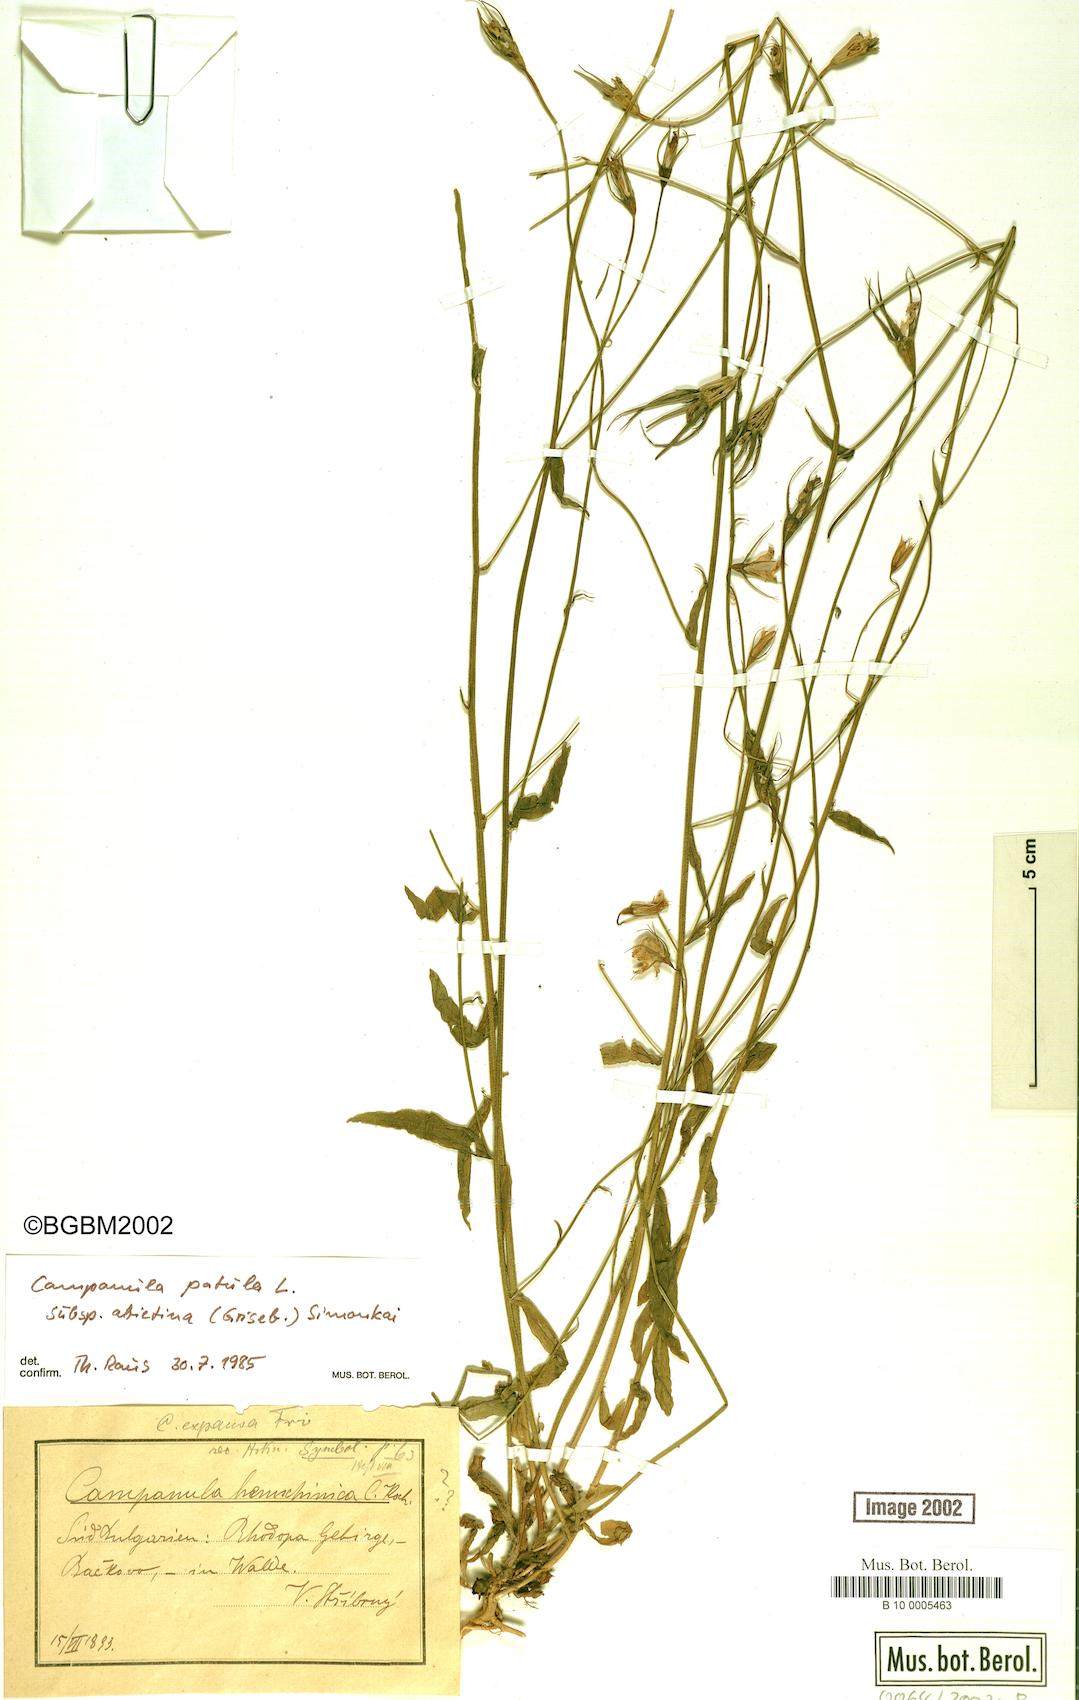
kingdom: Plantae
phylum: Tracheophyta
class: Magnoliopsida
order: Asterales
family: Campanulaceae
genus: Campanula
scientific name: Campanula patula
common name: Spreading bellflower
